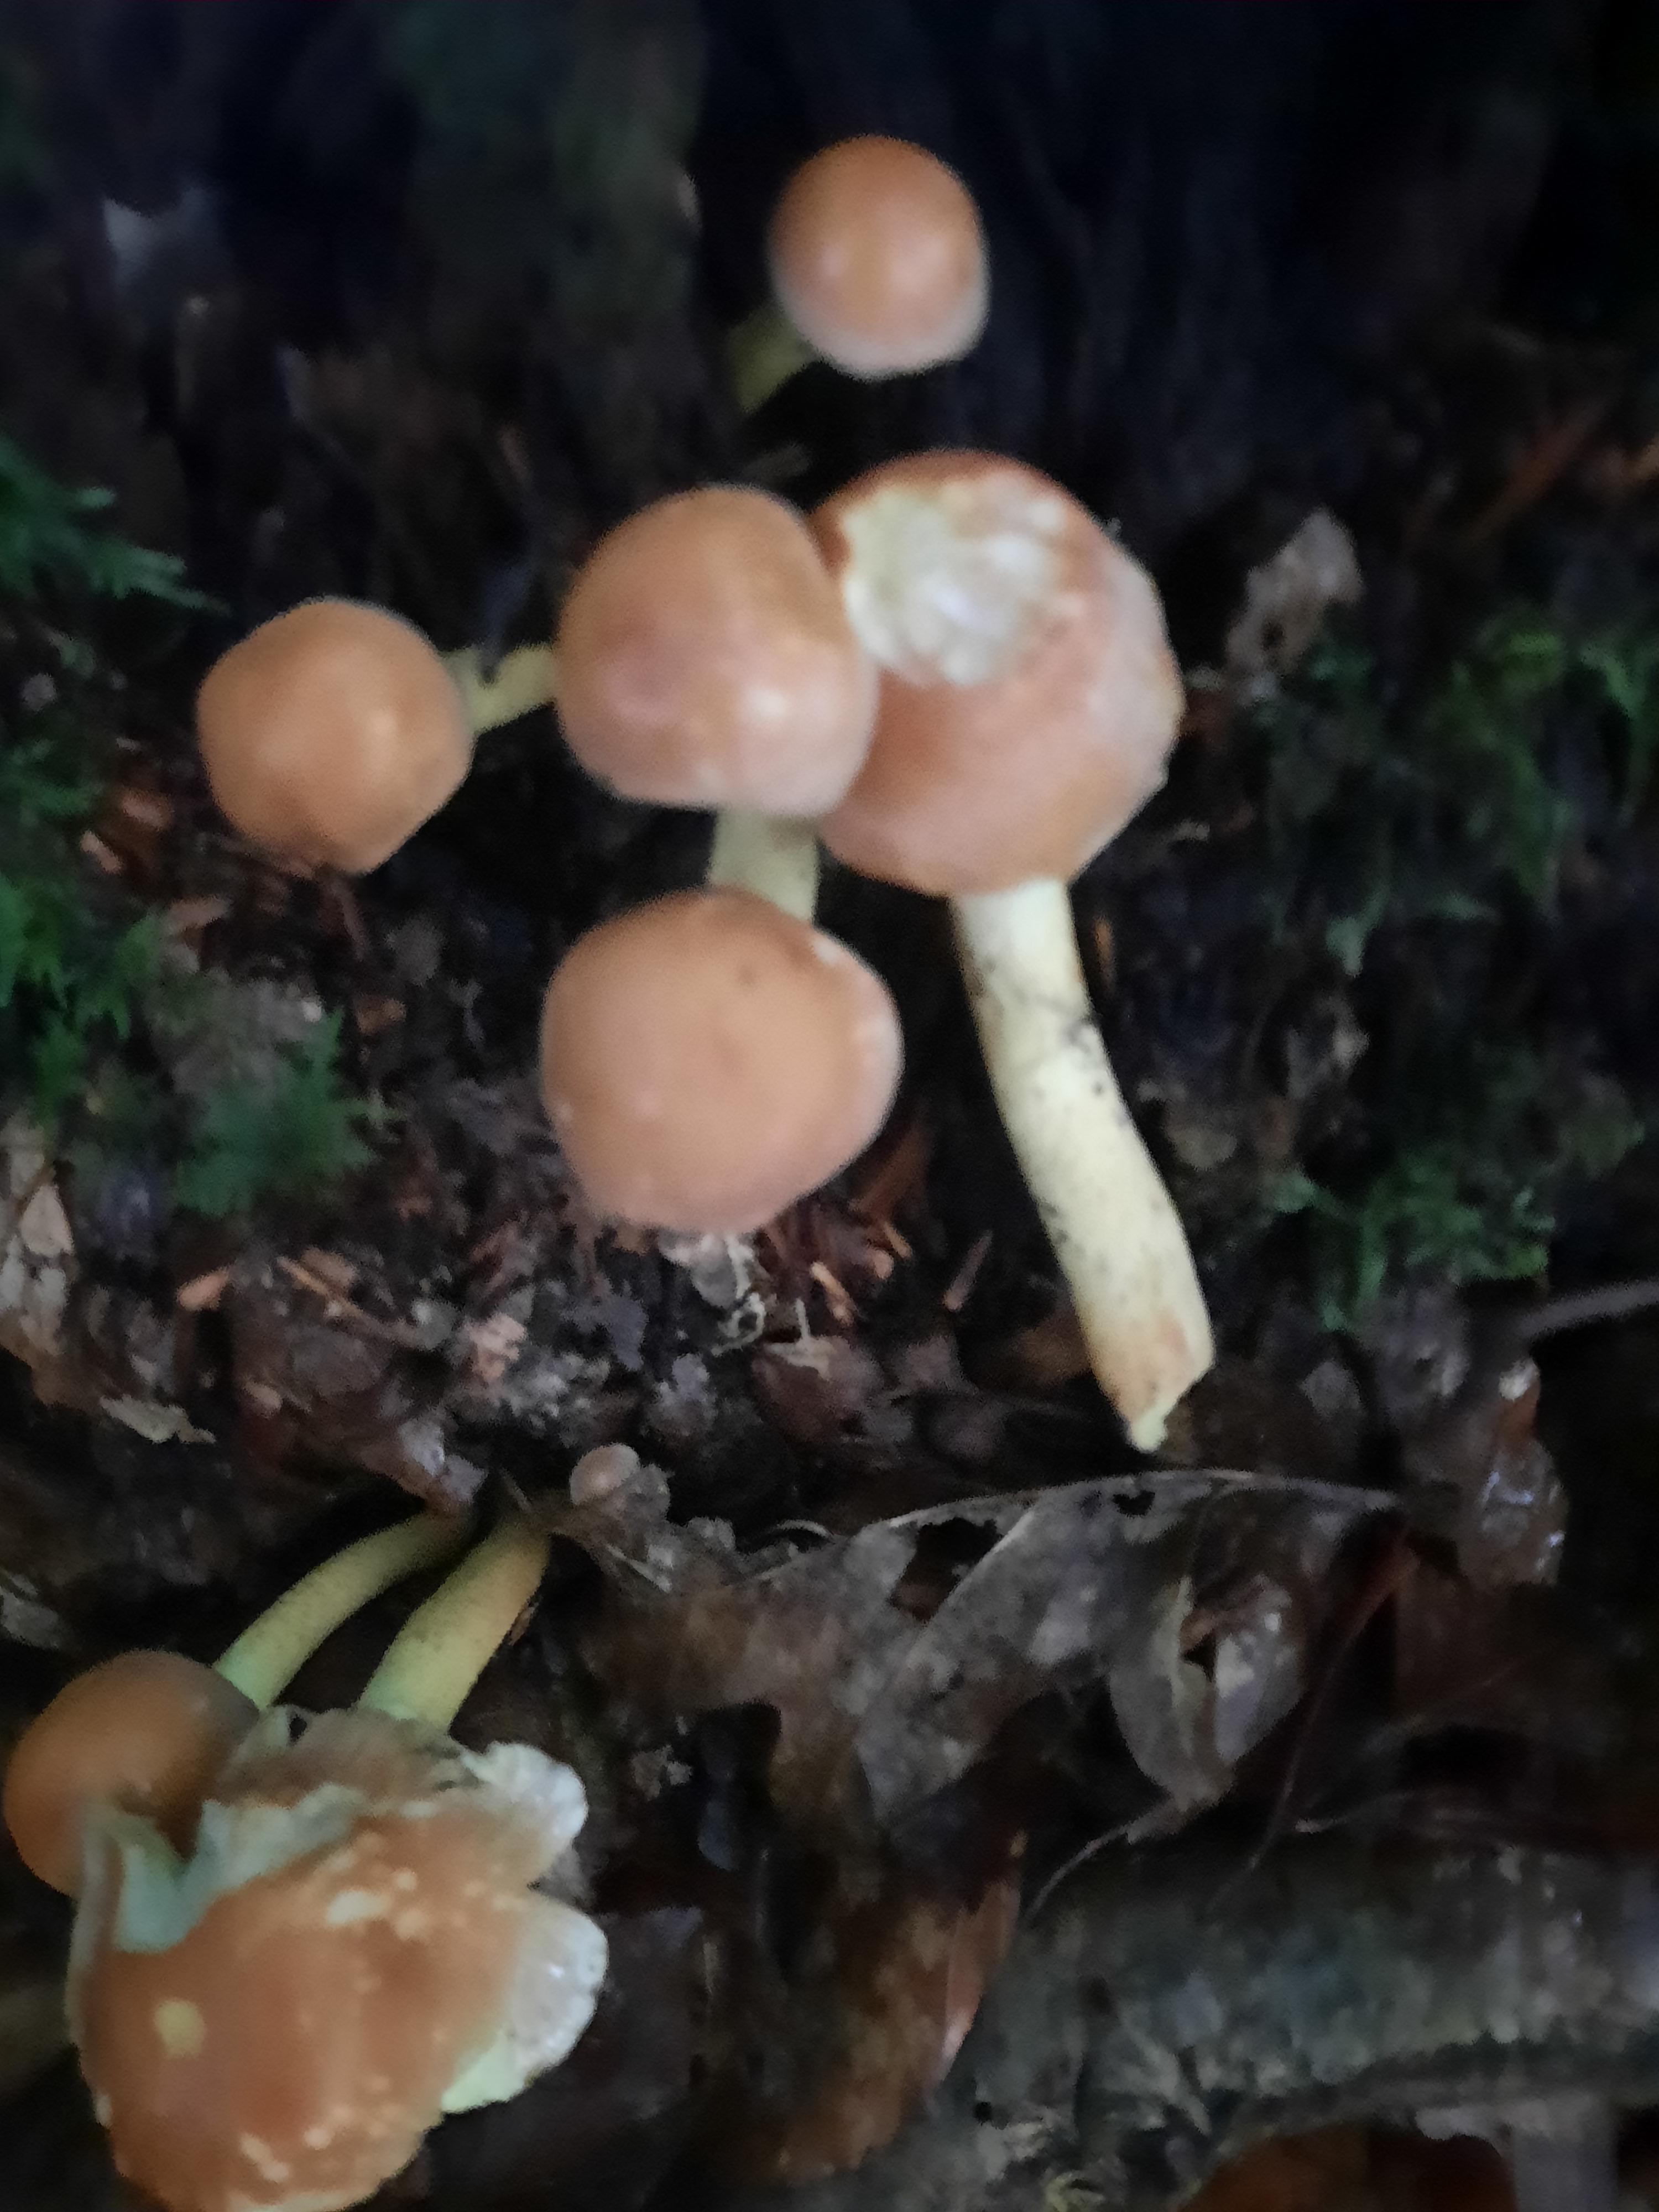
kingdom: Fungi
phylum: Basidiomycota
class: Agaricomycetes
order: Agaricales
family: Strophariaceae
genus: Hypholoma
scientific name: Hypholoma lateritium
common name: teglrød svovlhat
